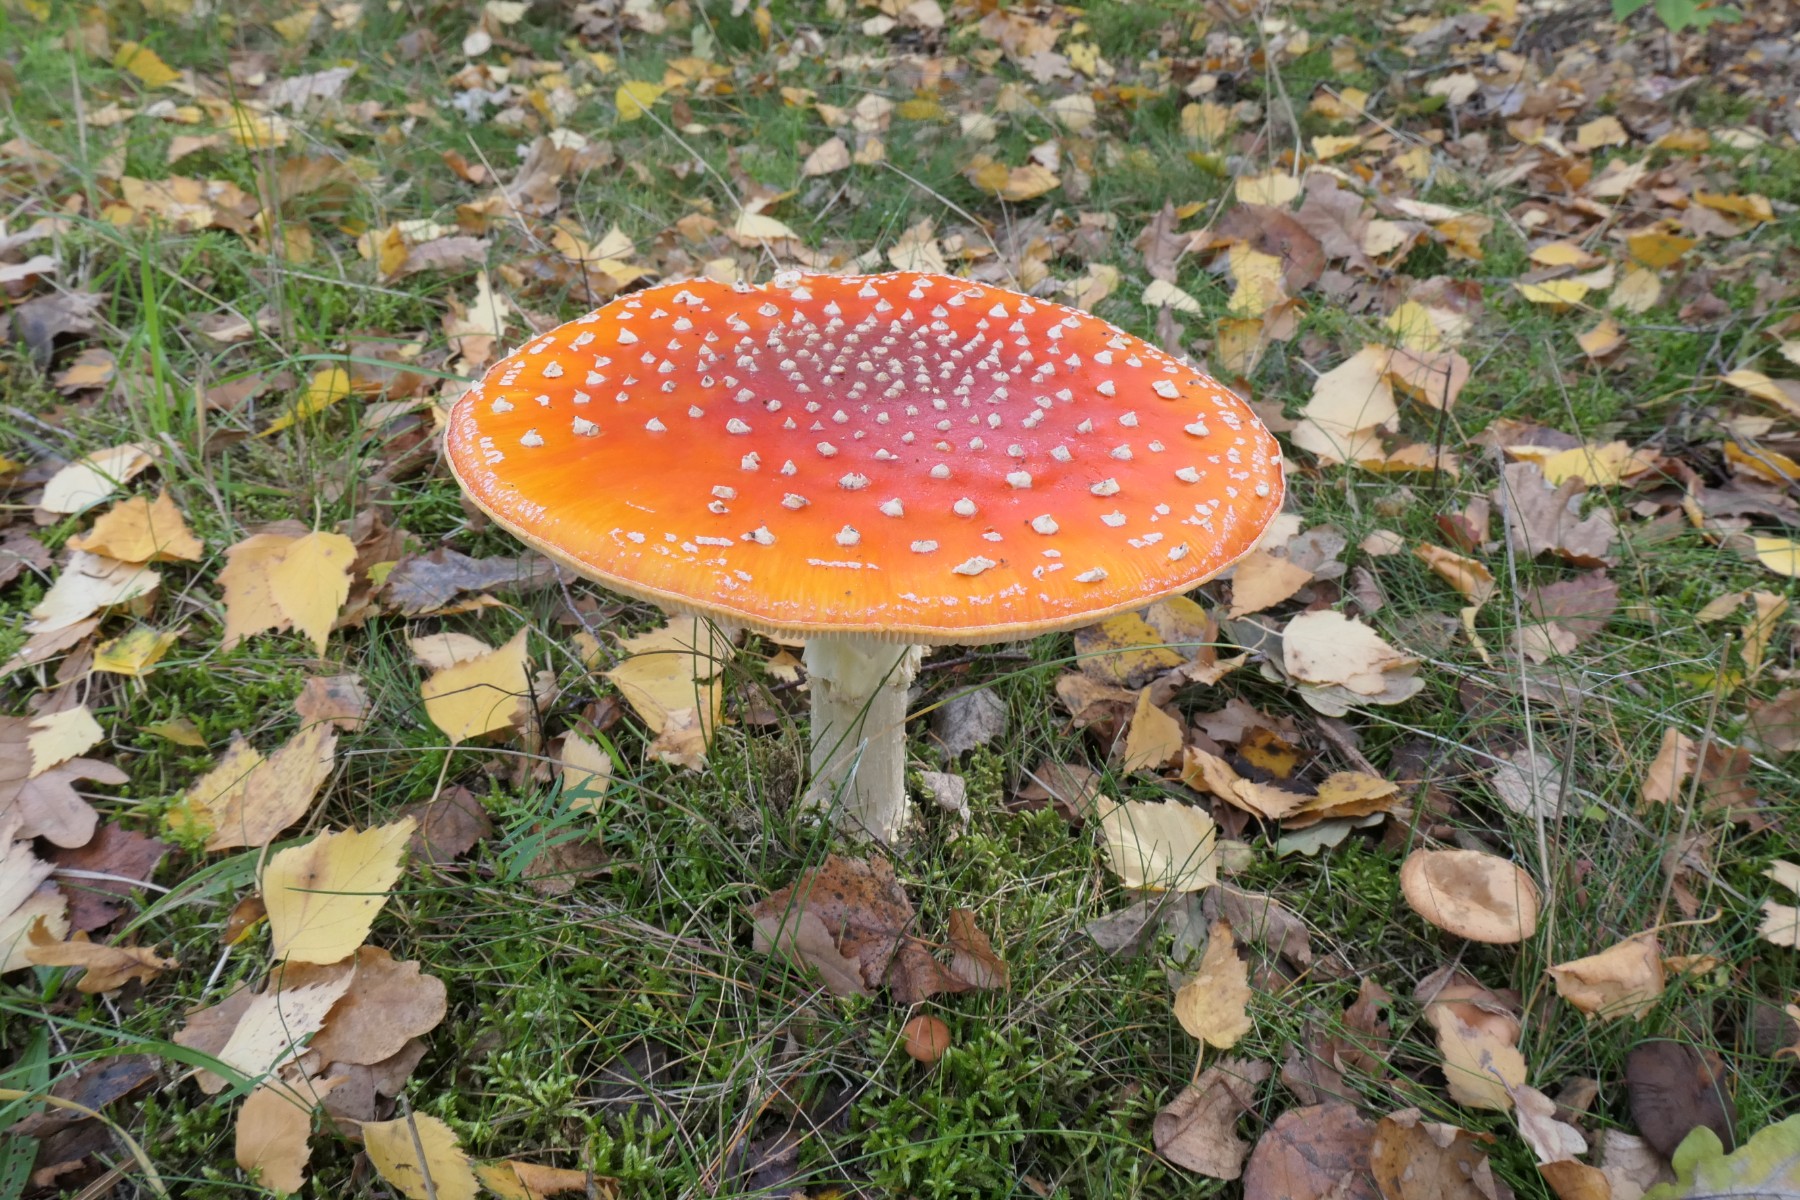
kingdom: Fungi
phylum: Basidiomycota
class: Agaricomycetes
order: Agaricales
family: Amanitaceae
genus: Amanita
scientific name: Amanita muscaria
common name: rød fluesvamp
